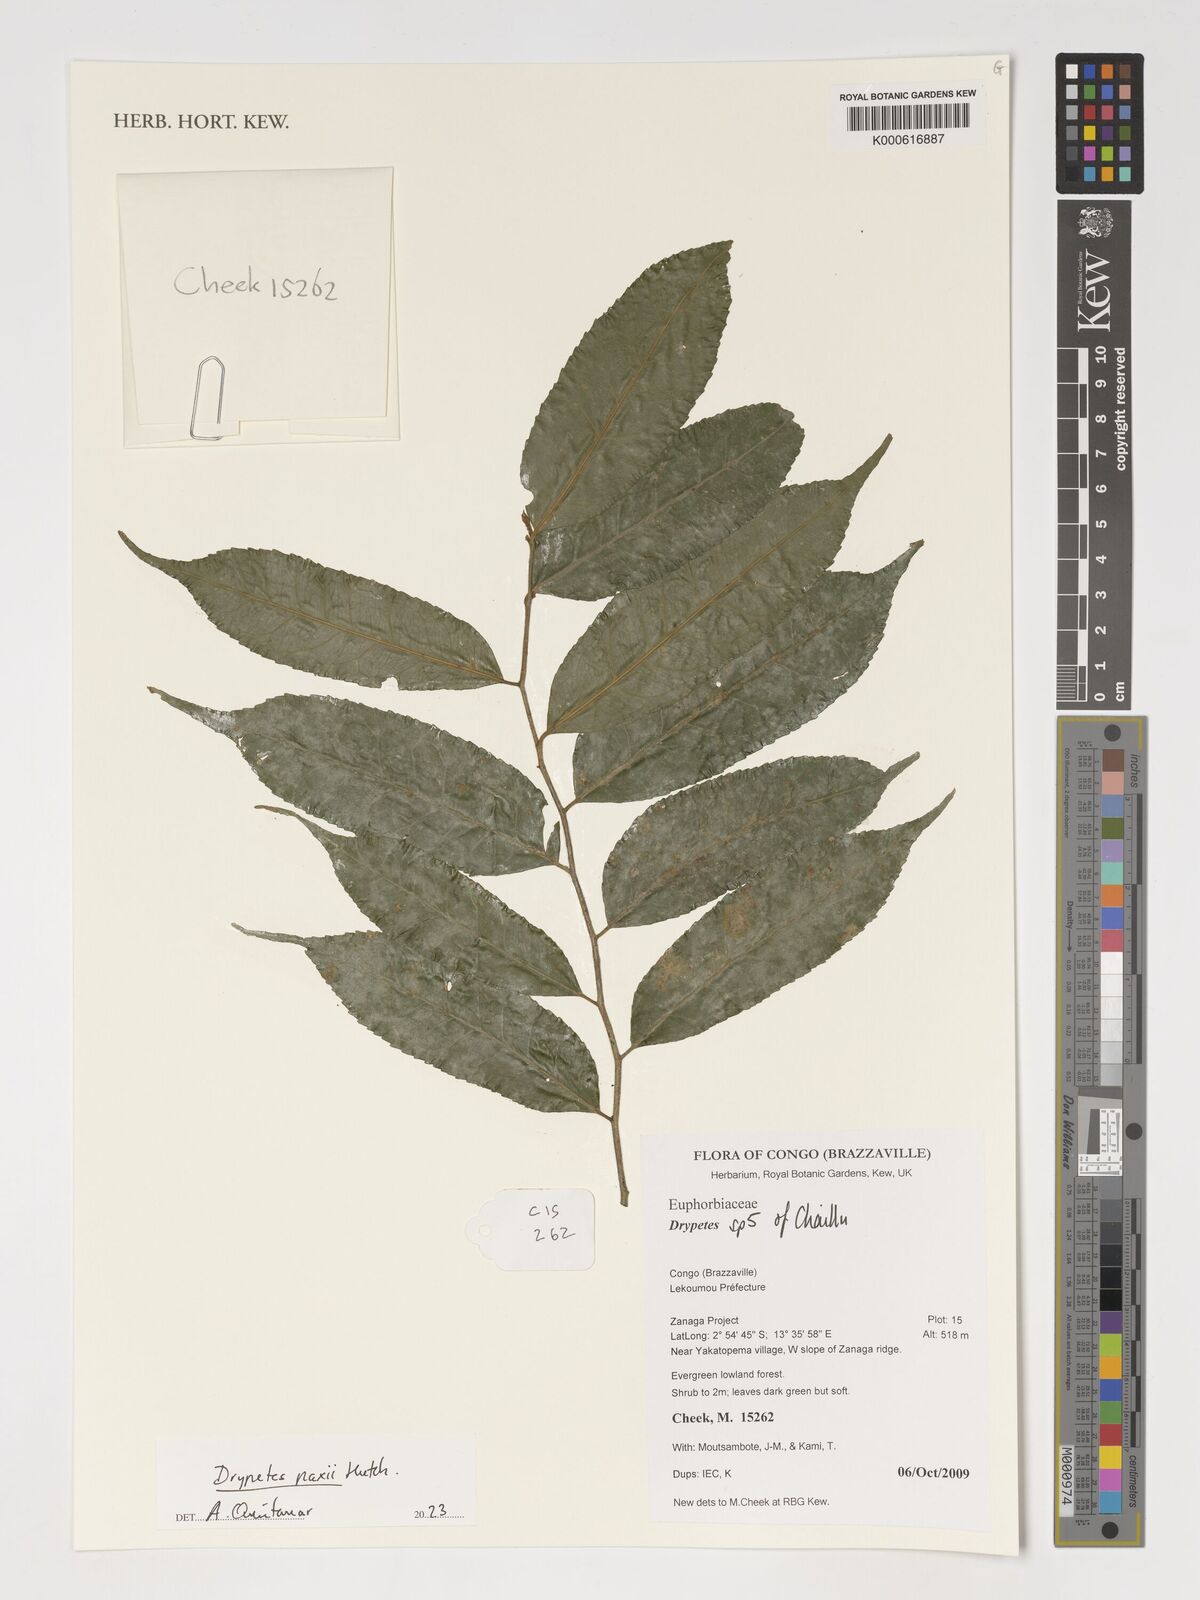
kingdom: Plantae
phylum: Tracheophyta
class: Magnoliopsida
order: Malpighiales
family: Putranjivaceae
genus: Drypetes
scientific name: Drypetes paxii
